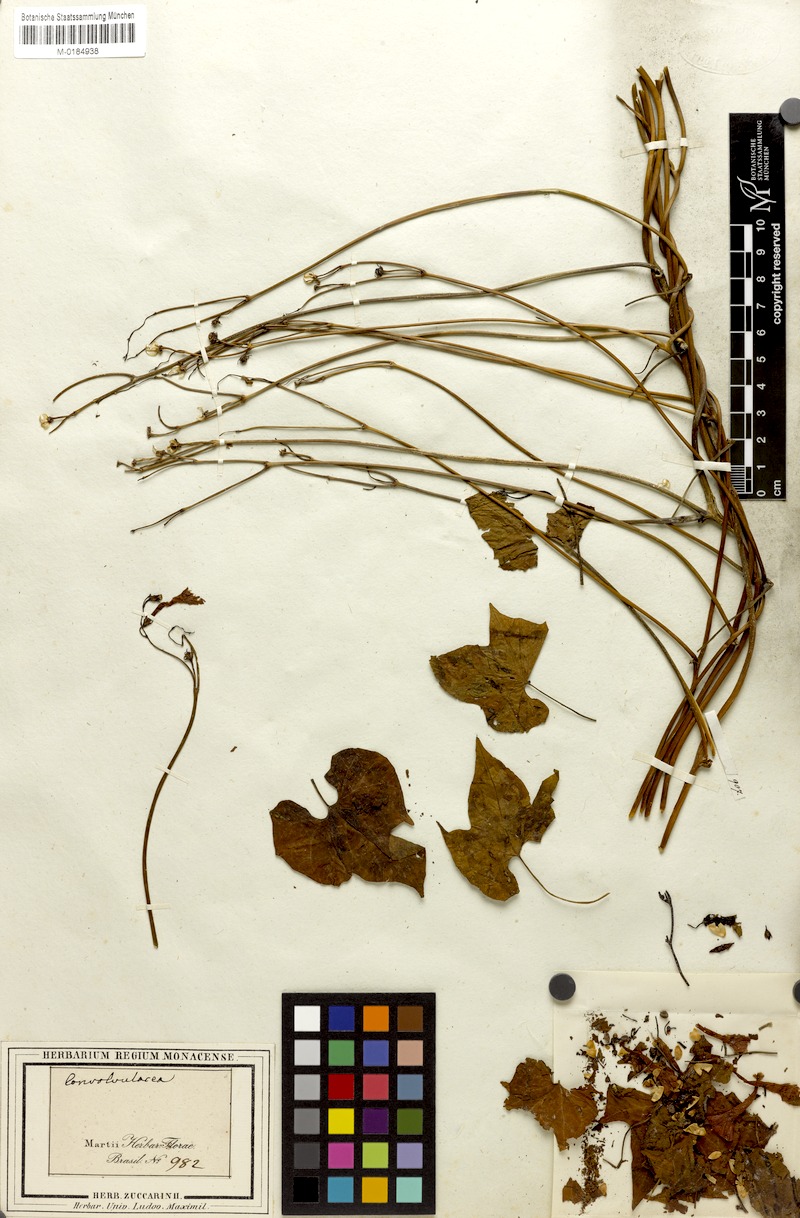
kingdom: Plantae
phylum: Tracheophyta
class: Magnoliopsida
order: Solanales
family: Convolvulaceae
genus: Ipomoea
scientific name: Ipomoea eriocarpa
